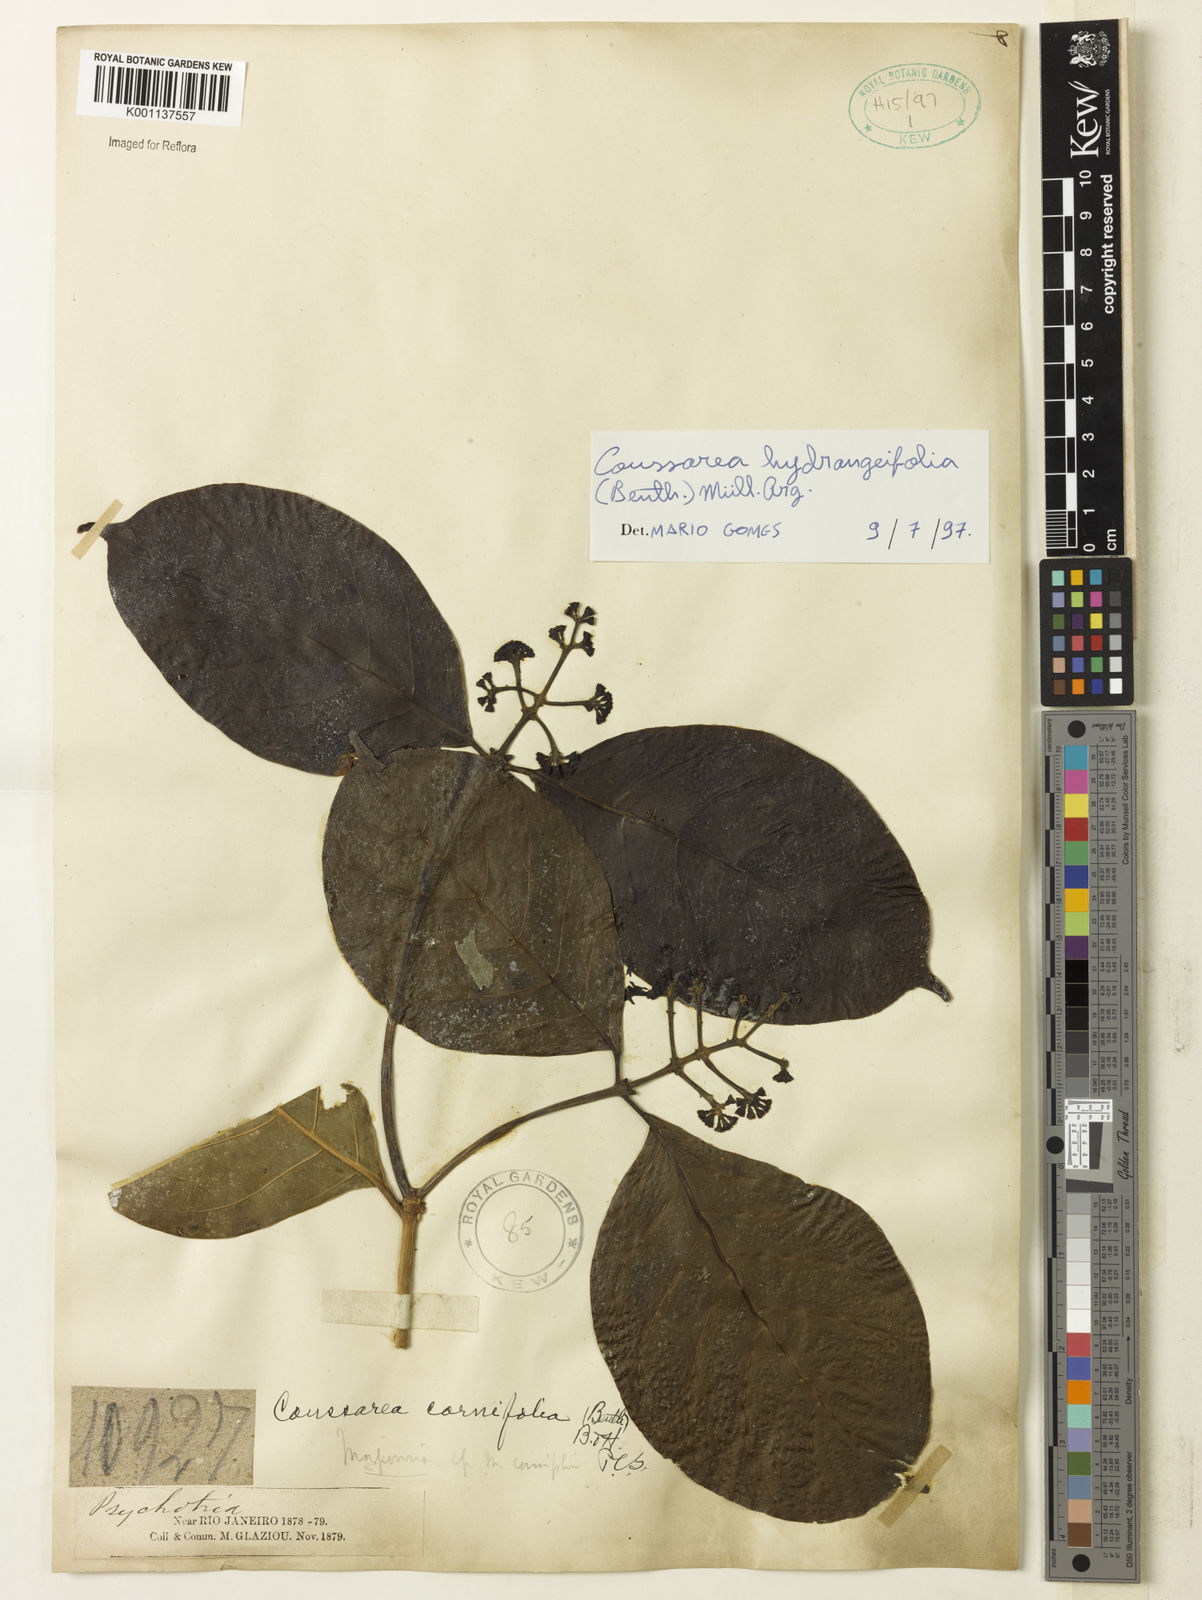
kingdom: Plantae
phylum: Tracheophyta
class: Magnoliopsida
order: Gentianales
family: Rubiaceae
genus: Coussarea
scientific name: Coussarea
